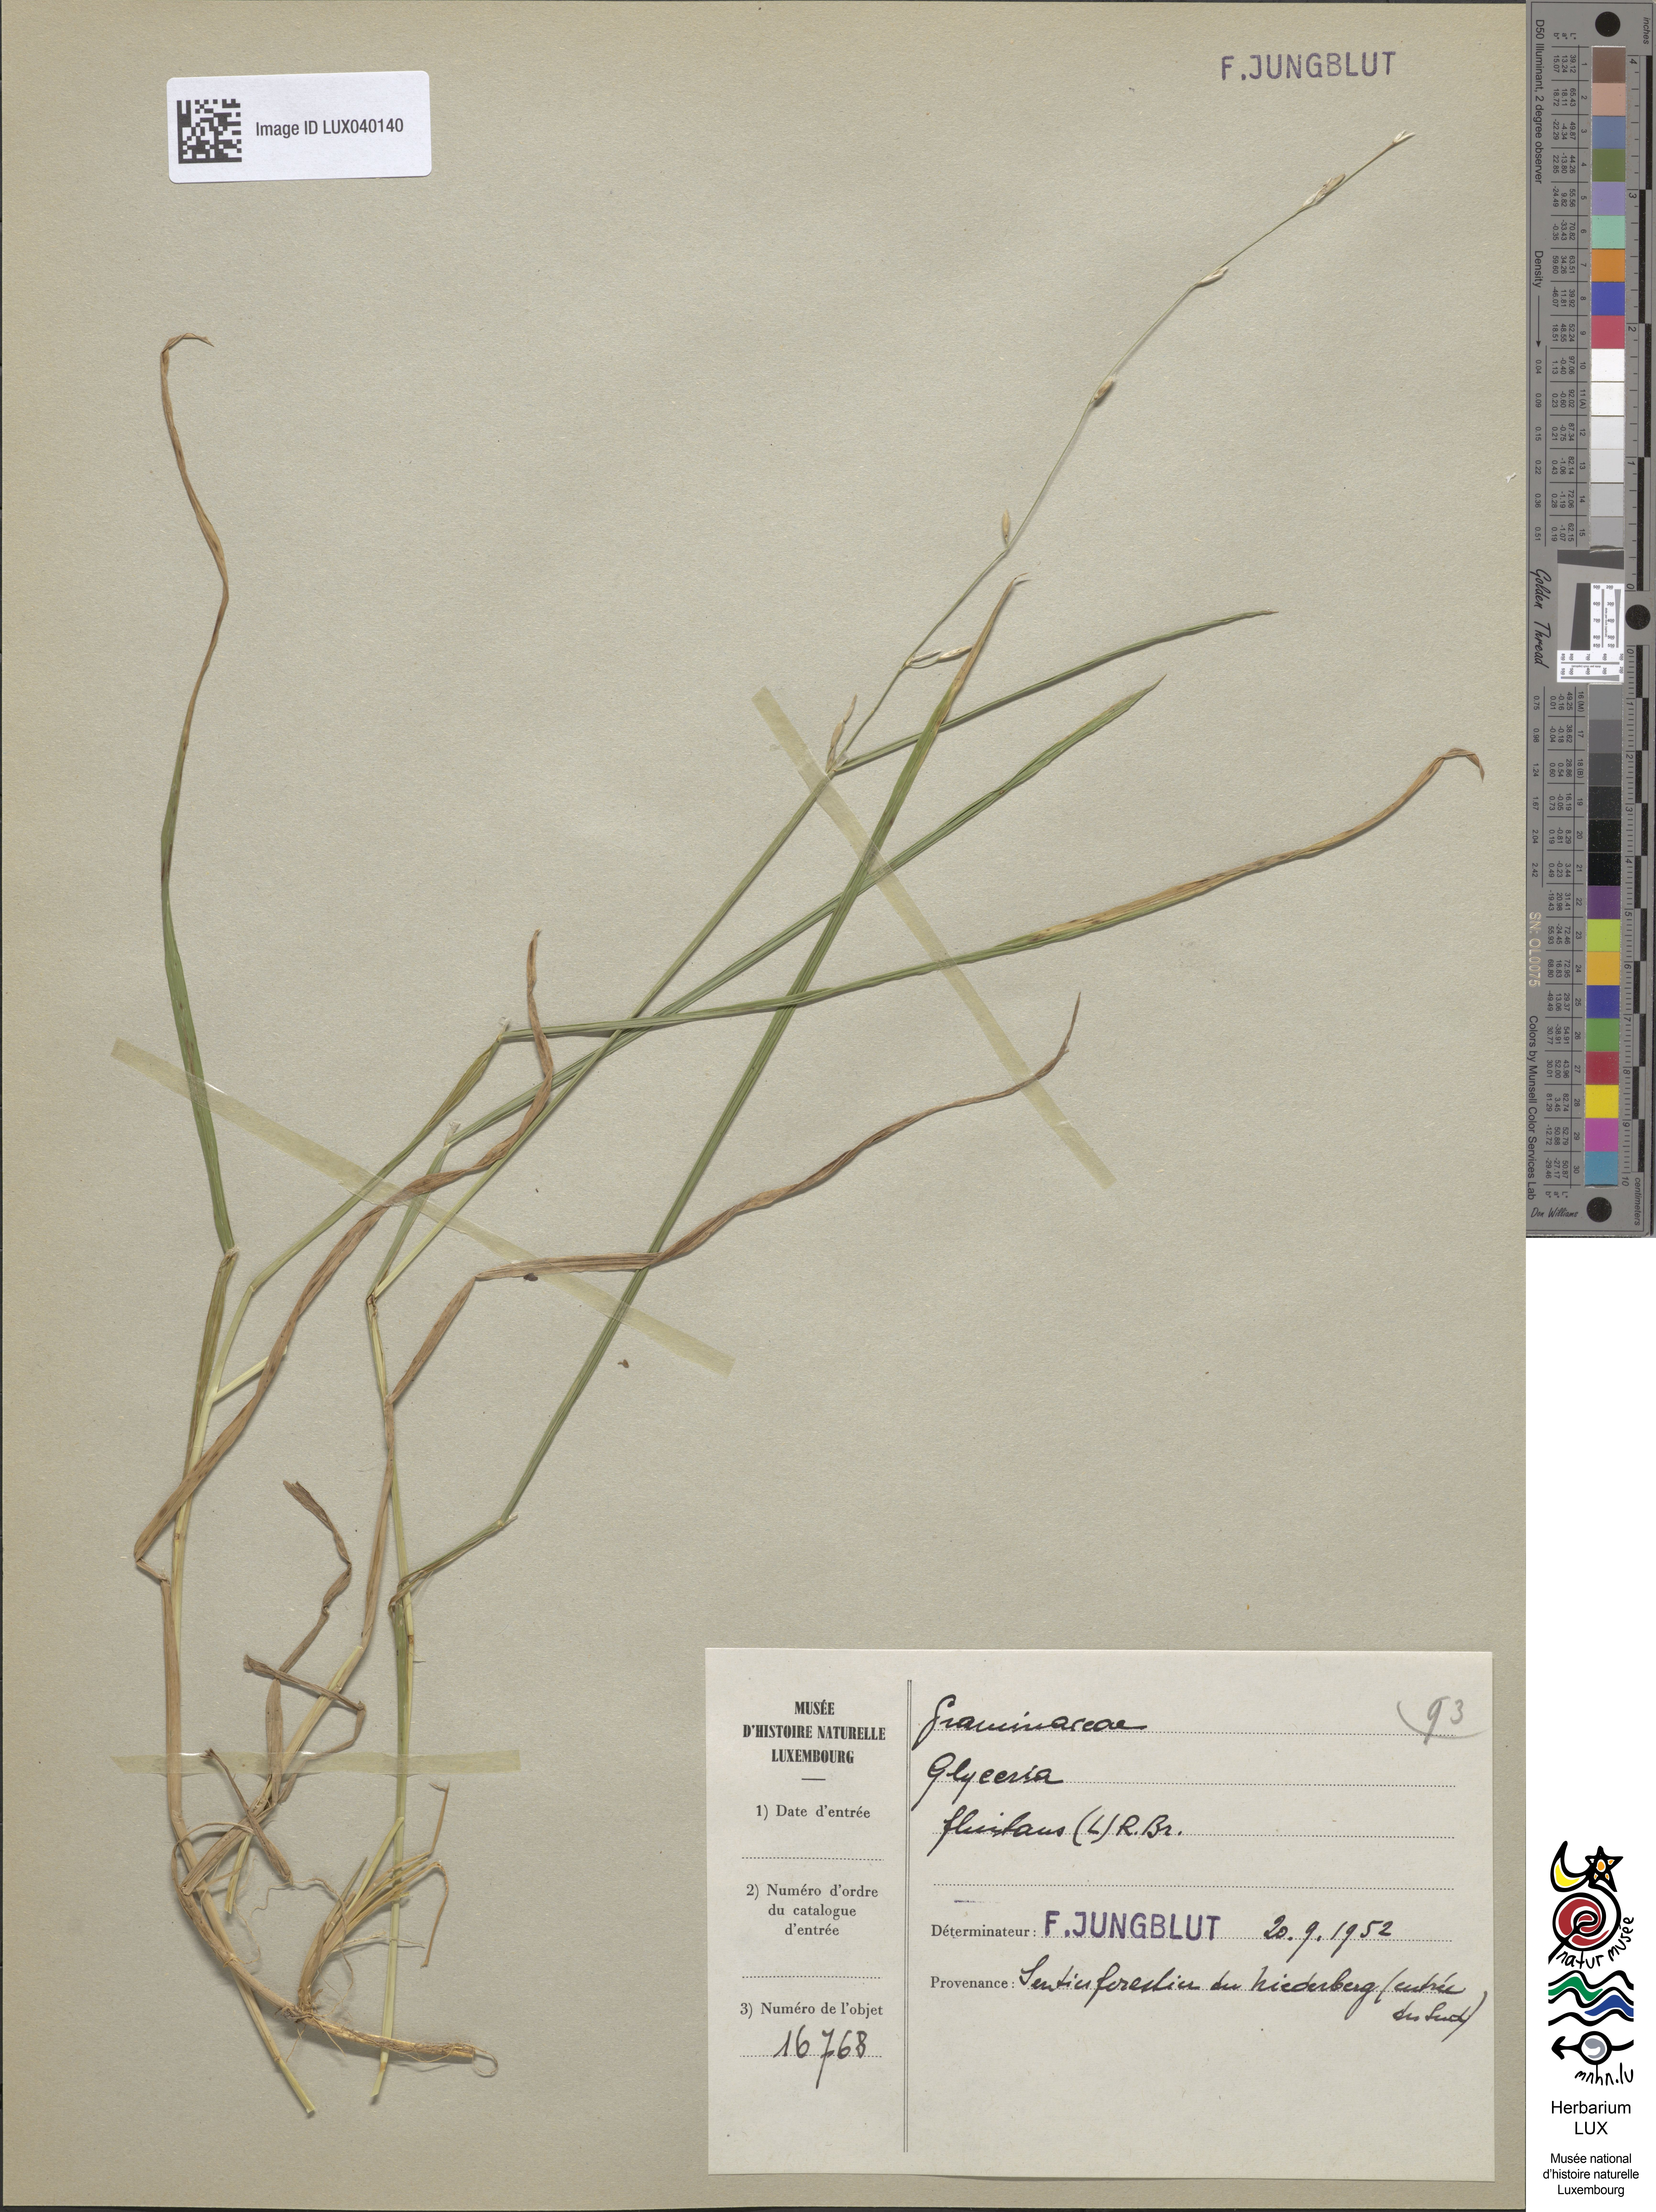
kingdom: Plantae
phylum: Tracheophyta
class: Liliopsida
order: Poales
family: Poaceae
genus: Glyceria
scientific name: Glyceria fluitans
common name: Floating sweet-grass
